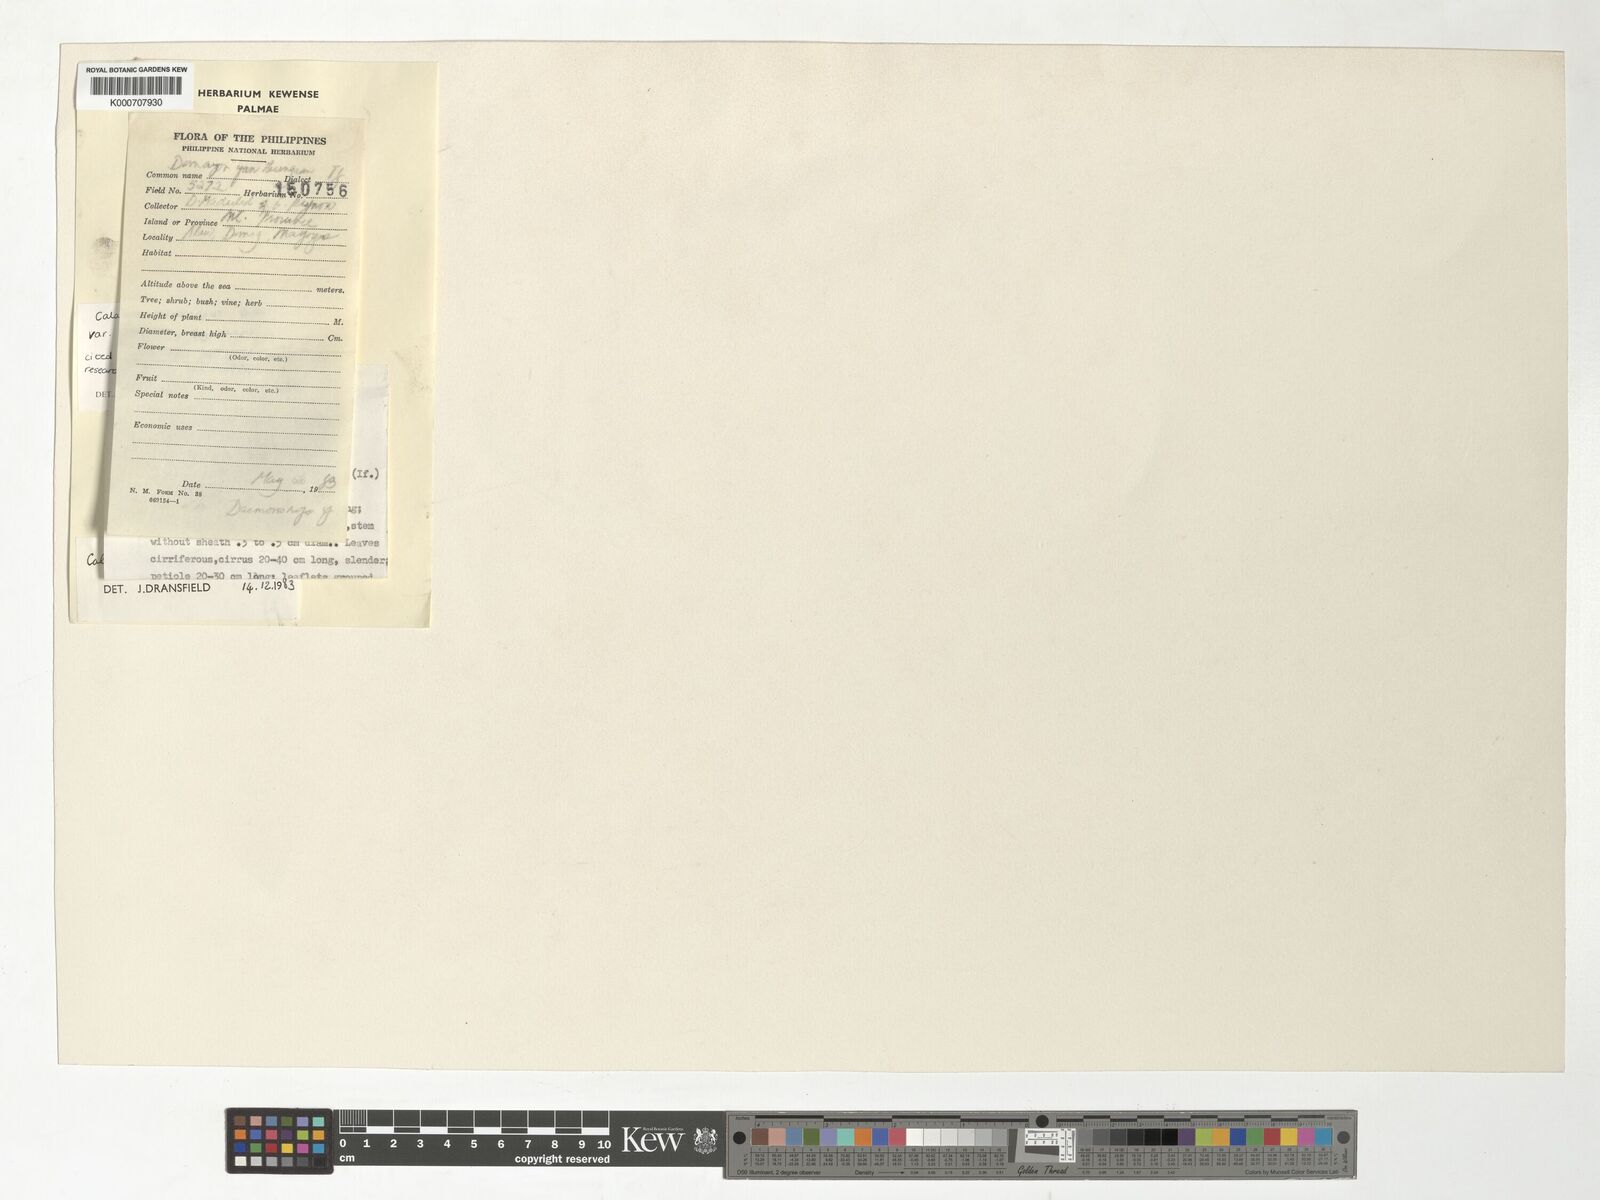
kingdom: Plantae
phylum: Tracheophyta
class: Liliopsida
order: Arecales
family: Arecaceae
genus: Calamus
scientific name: Calamus siphonospathus
